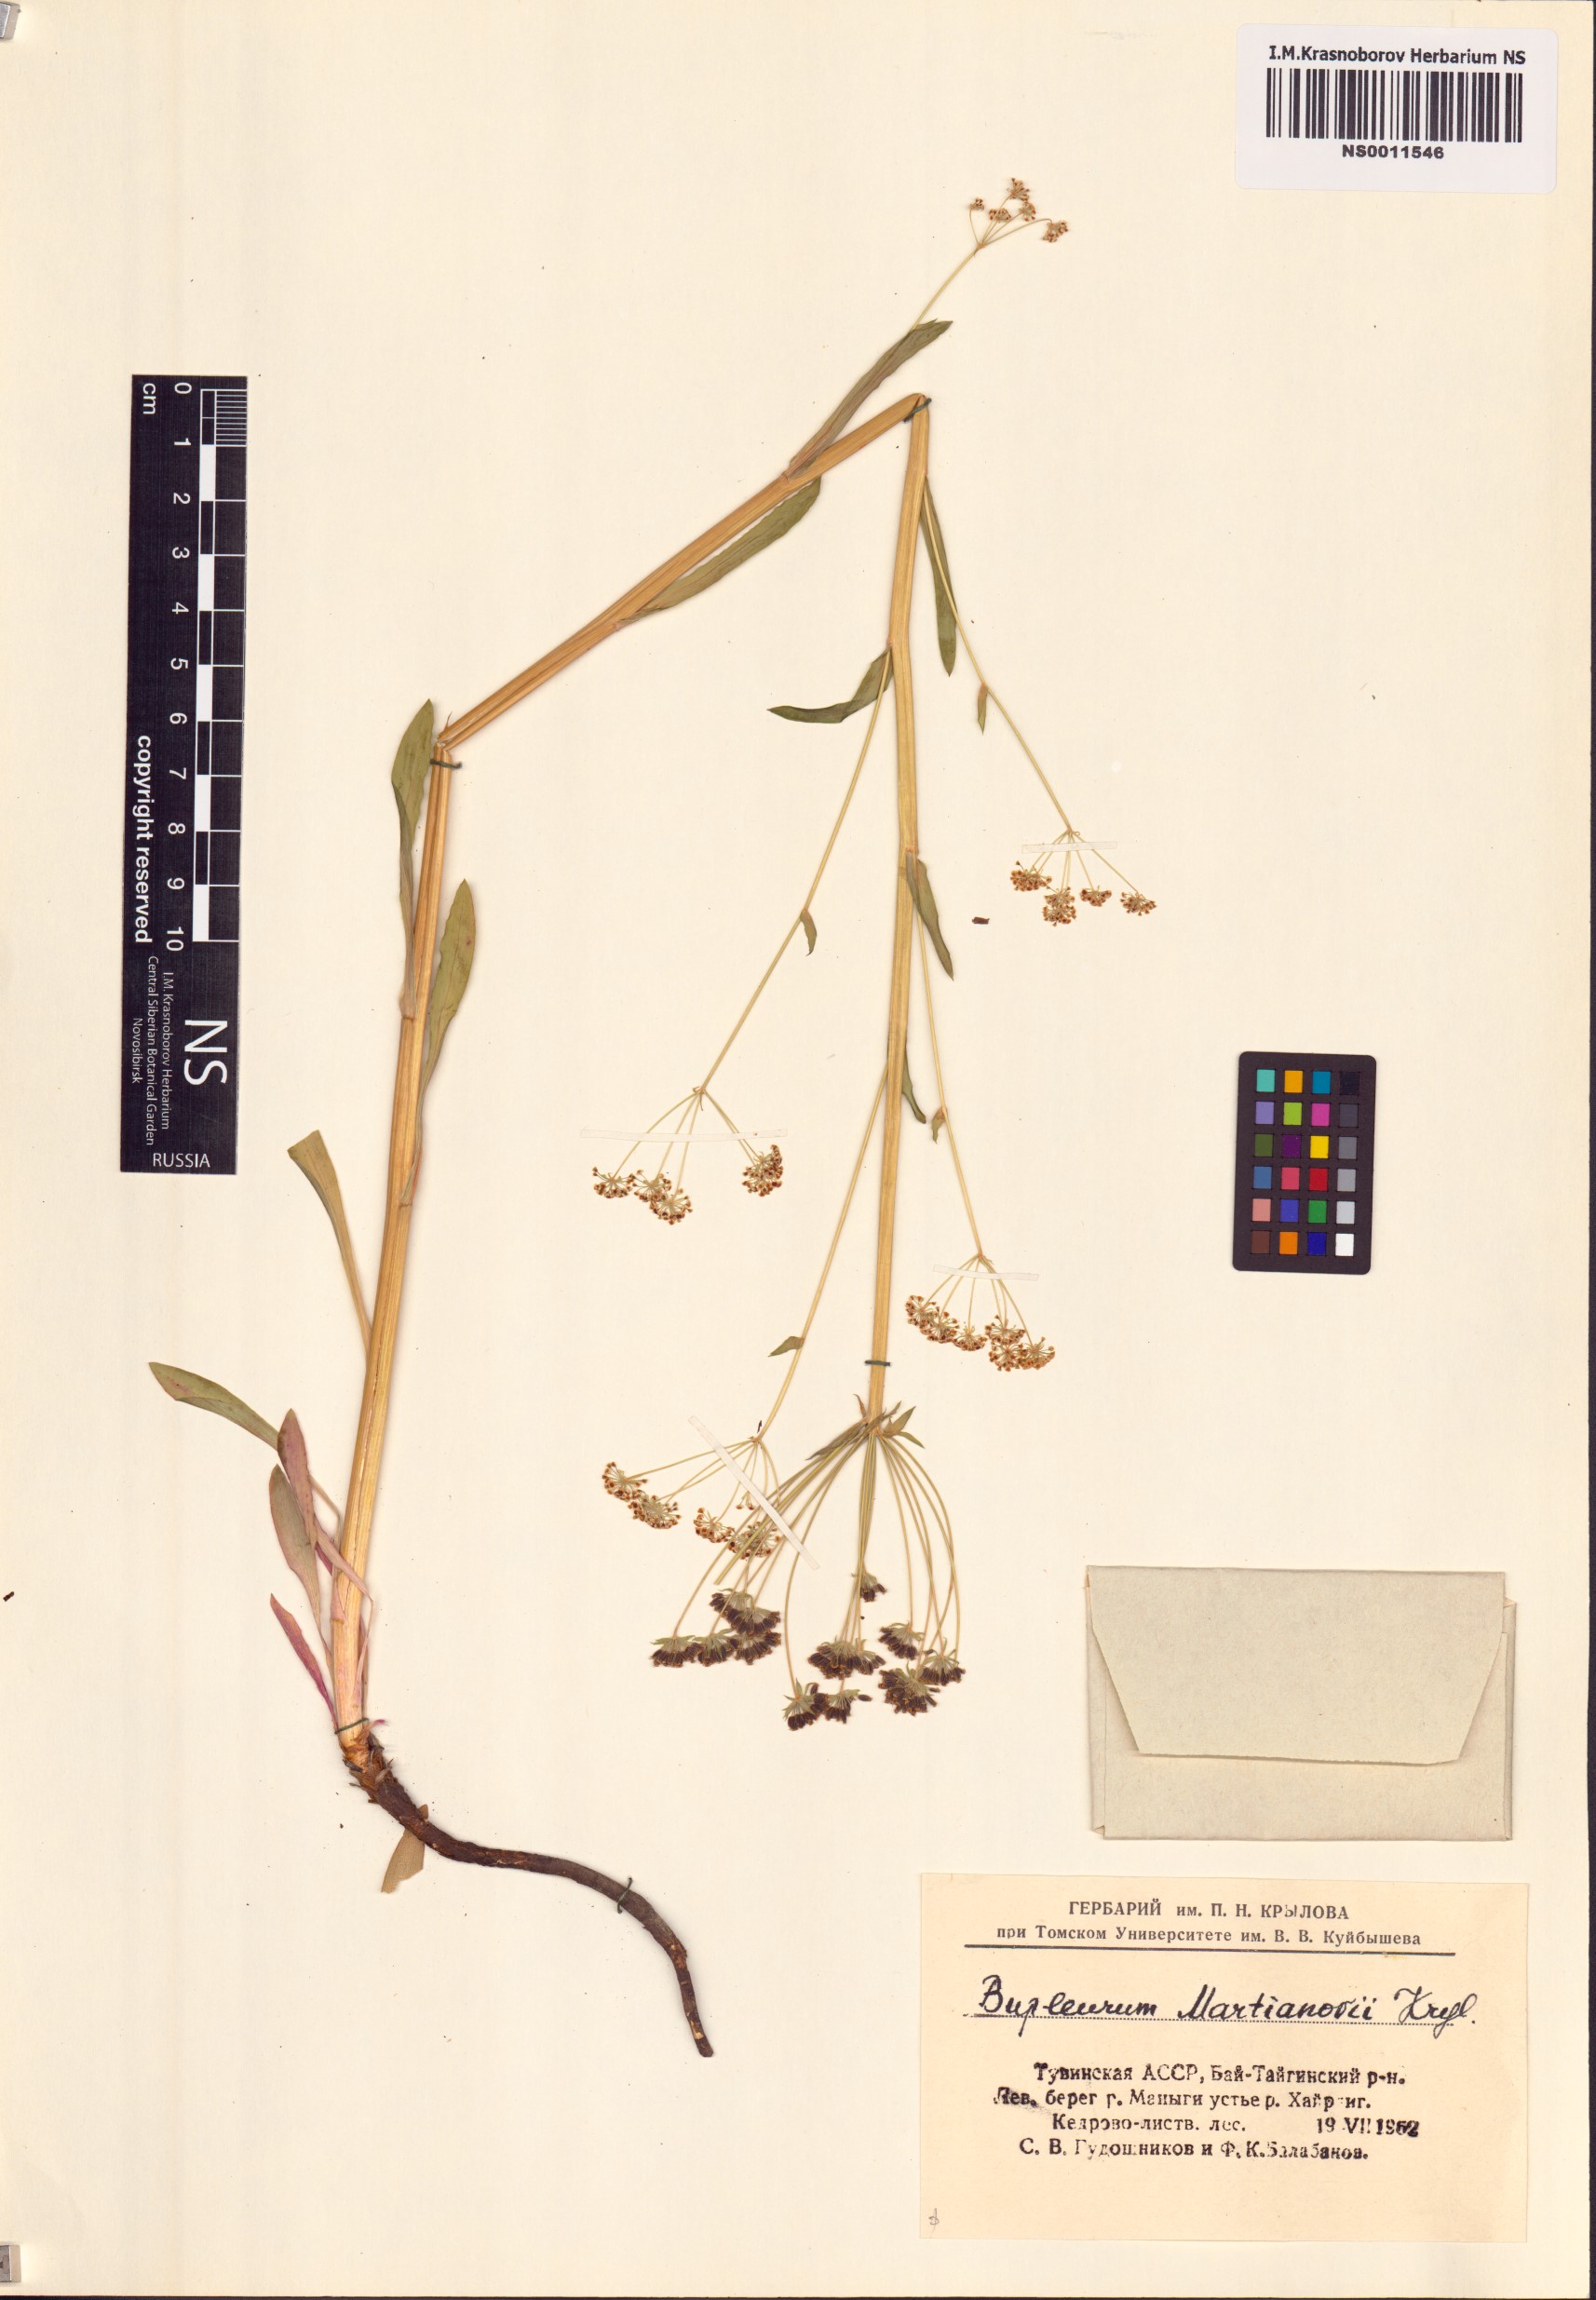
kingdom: Plantae
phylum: Tracheophyta
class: Magnoliopsida
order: Apiales
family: Apiaceae
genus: Bupleurum
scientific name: Bupleurum martjanovii
